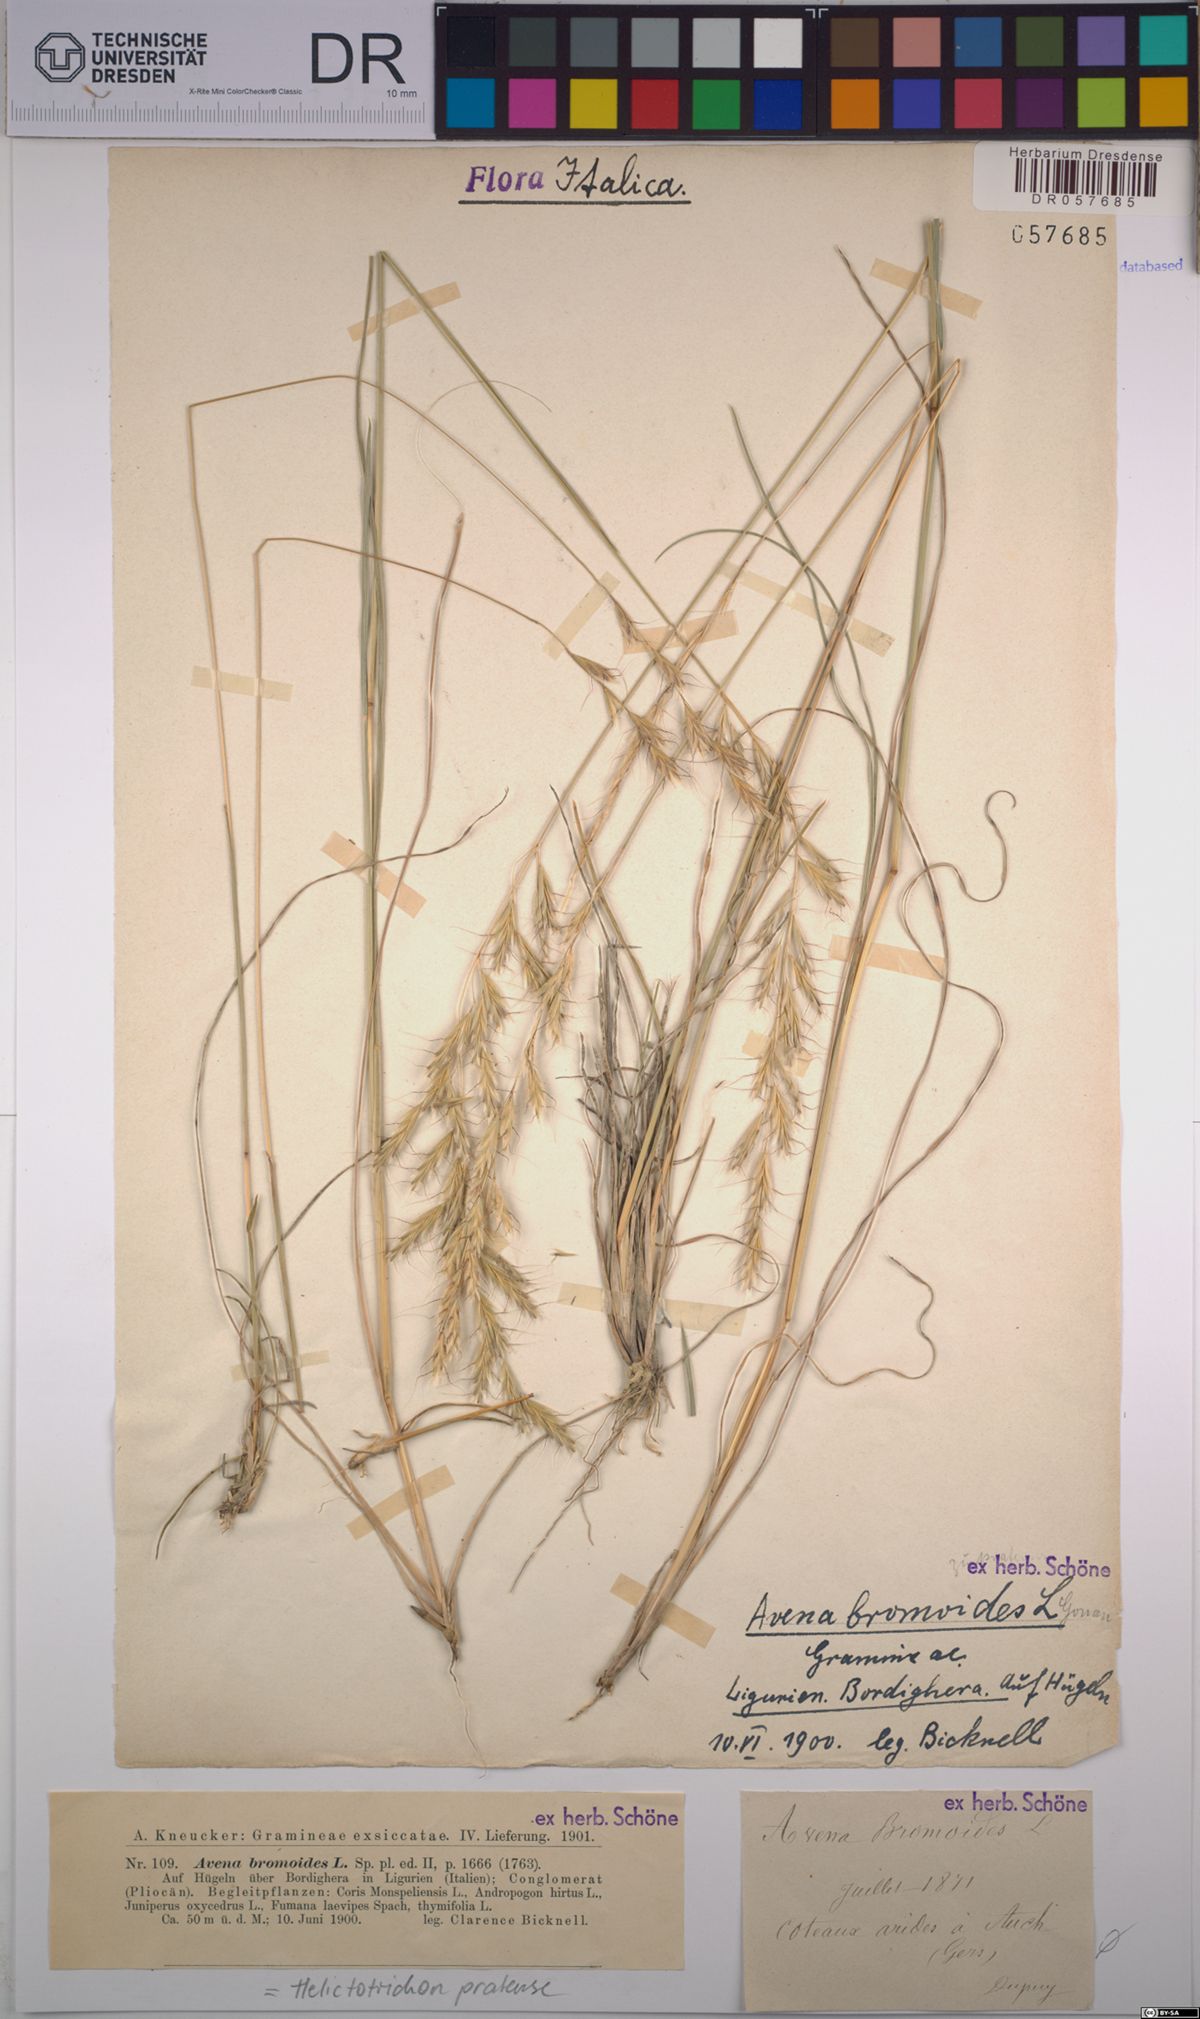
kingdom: Plantae
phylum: Tracheophyta
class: Liliopsida
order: Poales
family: Poaceae
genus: Helictochloa
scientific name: Helictochloa pratensis
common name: Meadow oat grass
